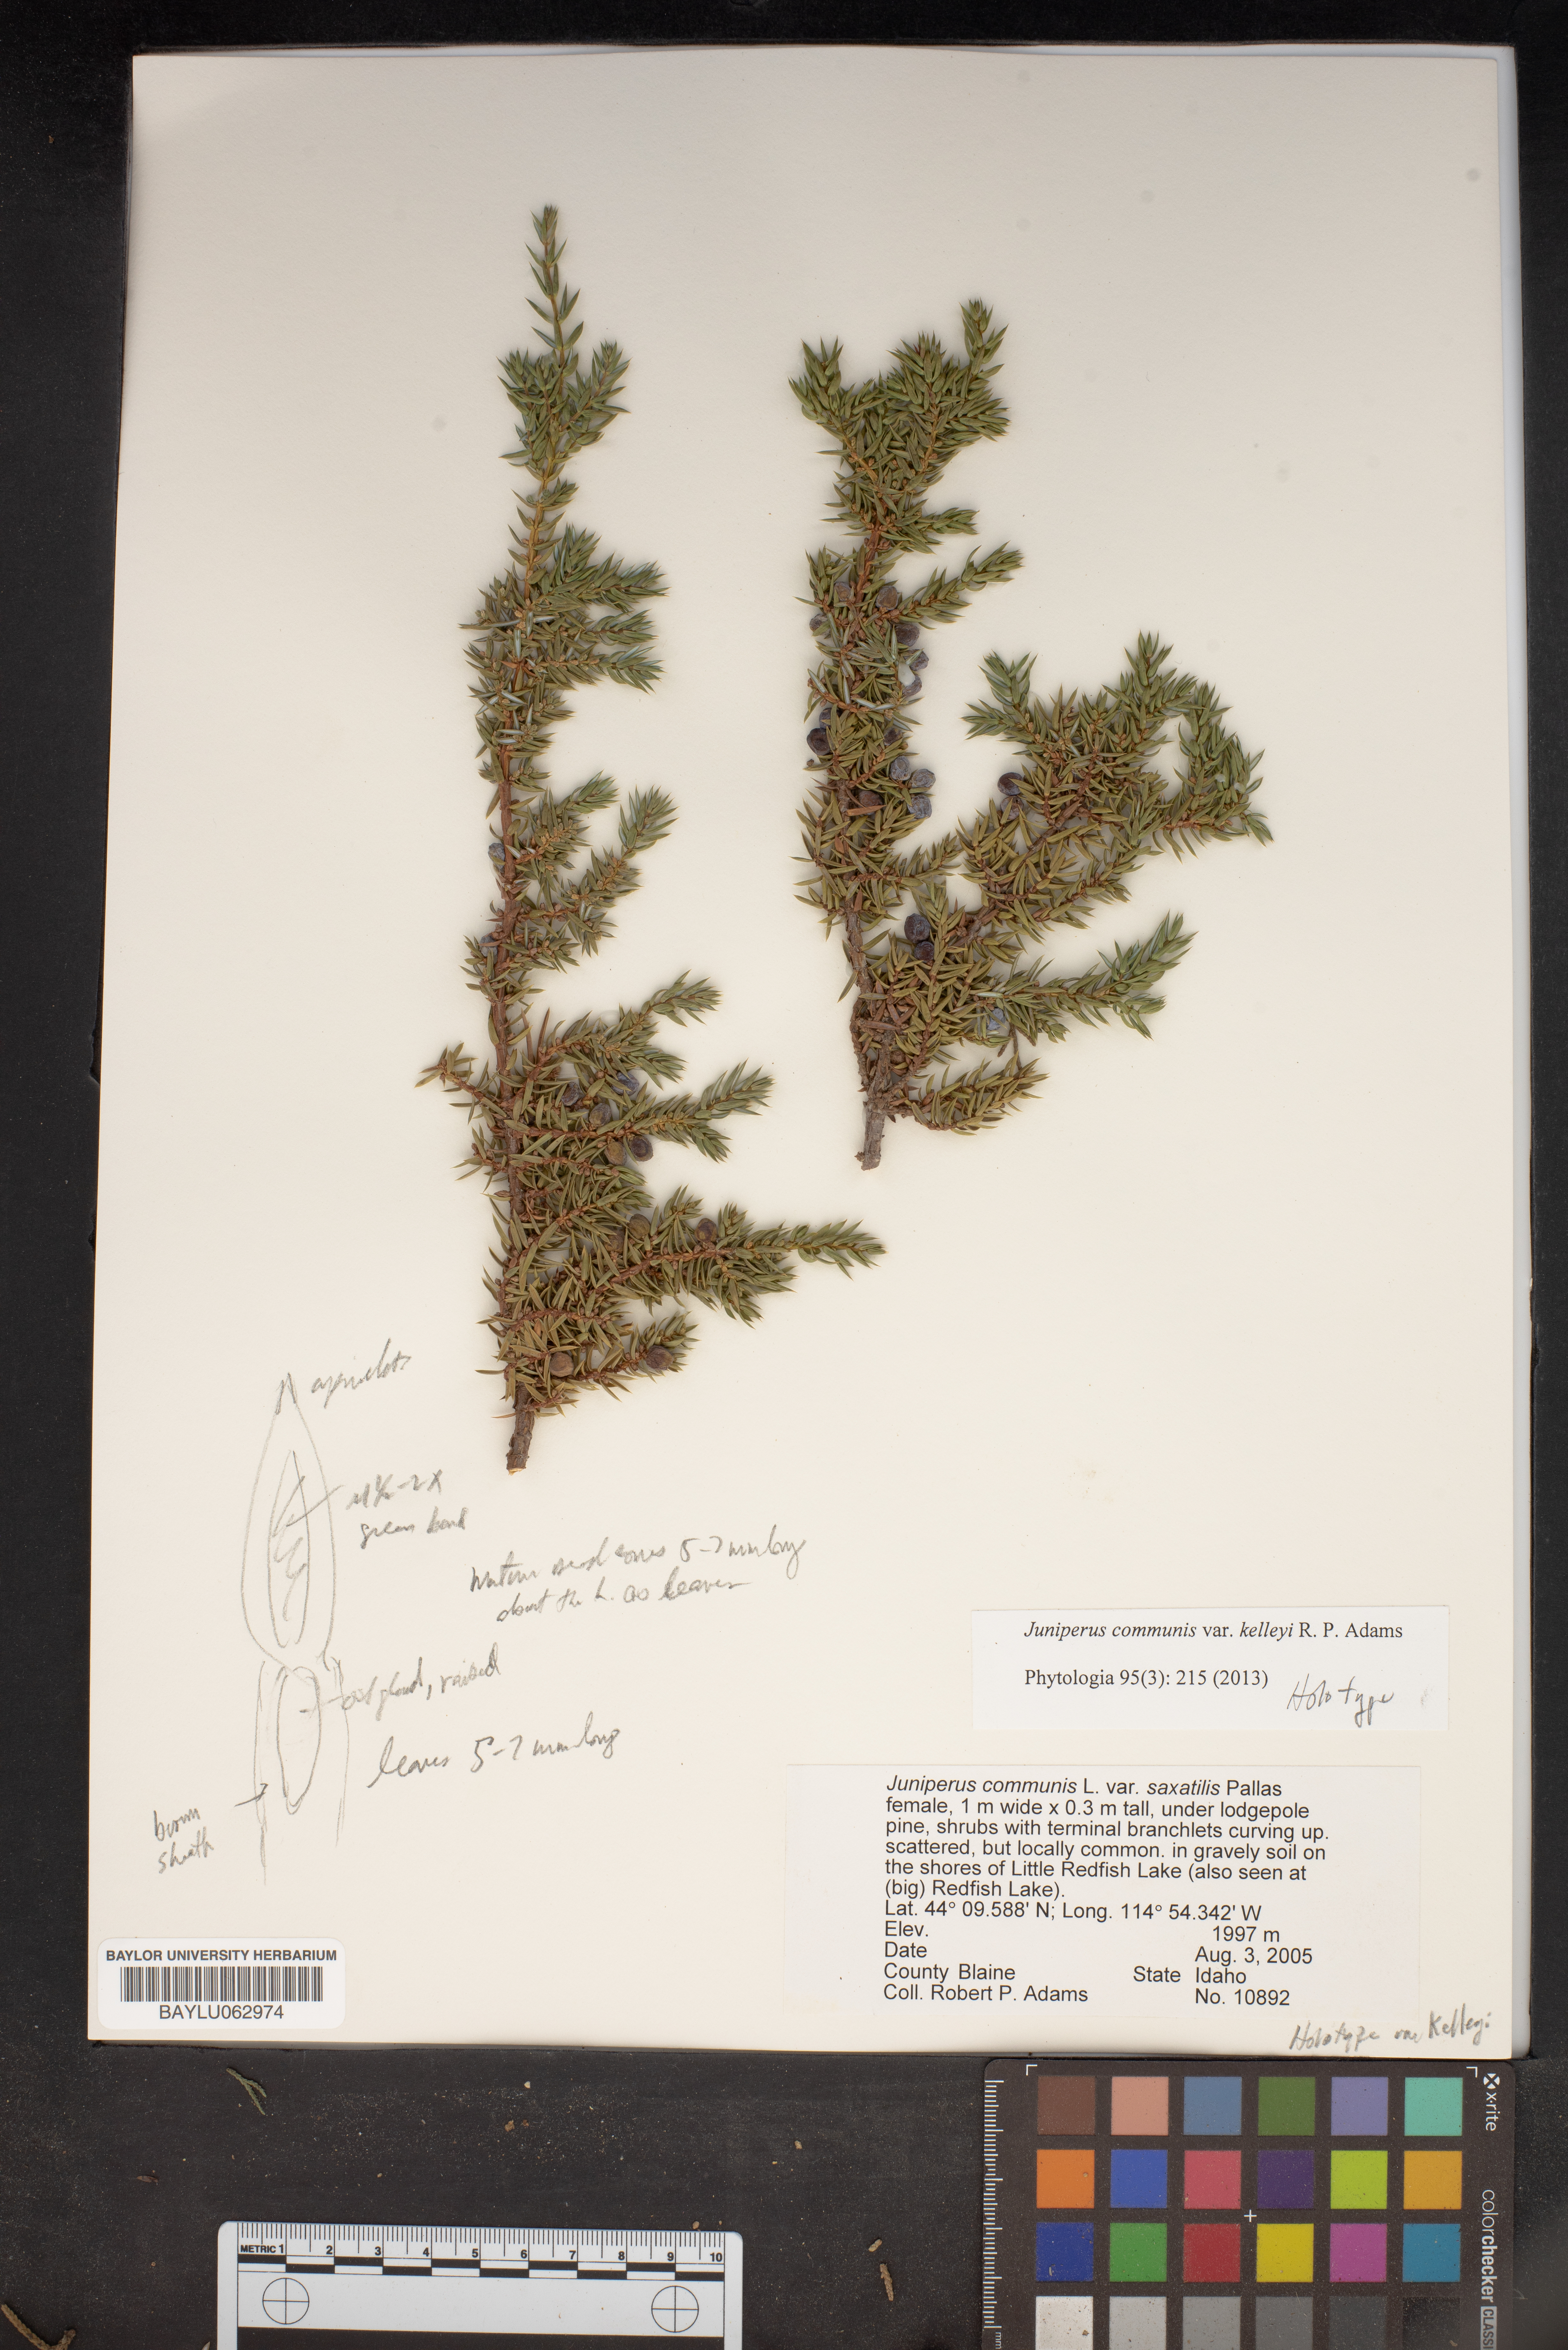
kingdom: Plantae
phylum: Tracheophyta
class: Pinopsida
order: Pinales
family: Cupressaceae
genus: Juniperus
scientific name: Juniperus communis
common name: Common juniper
